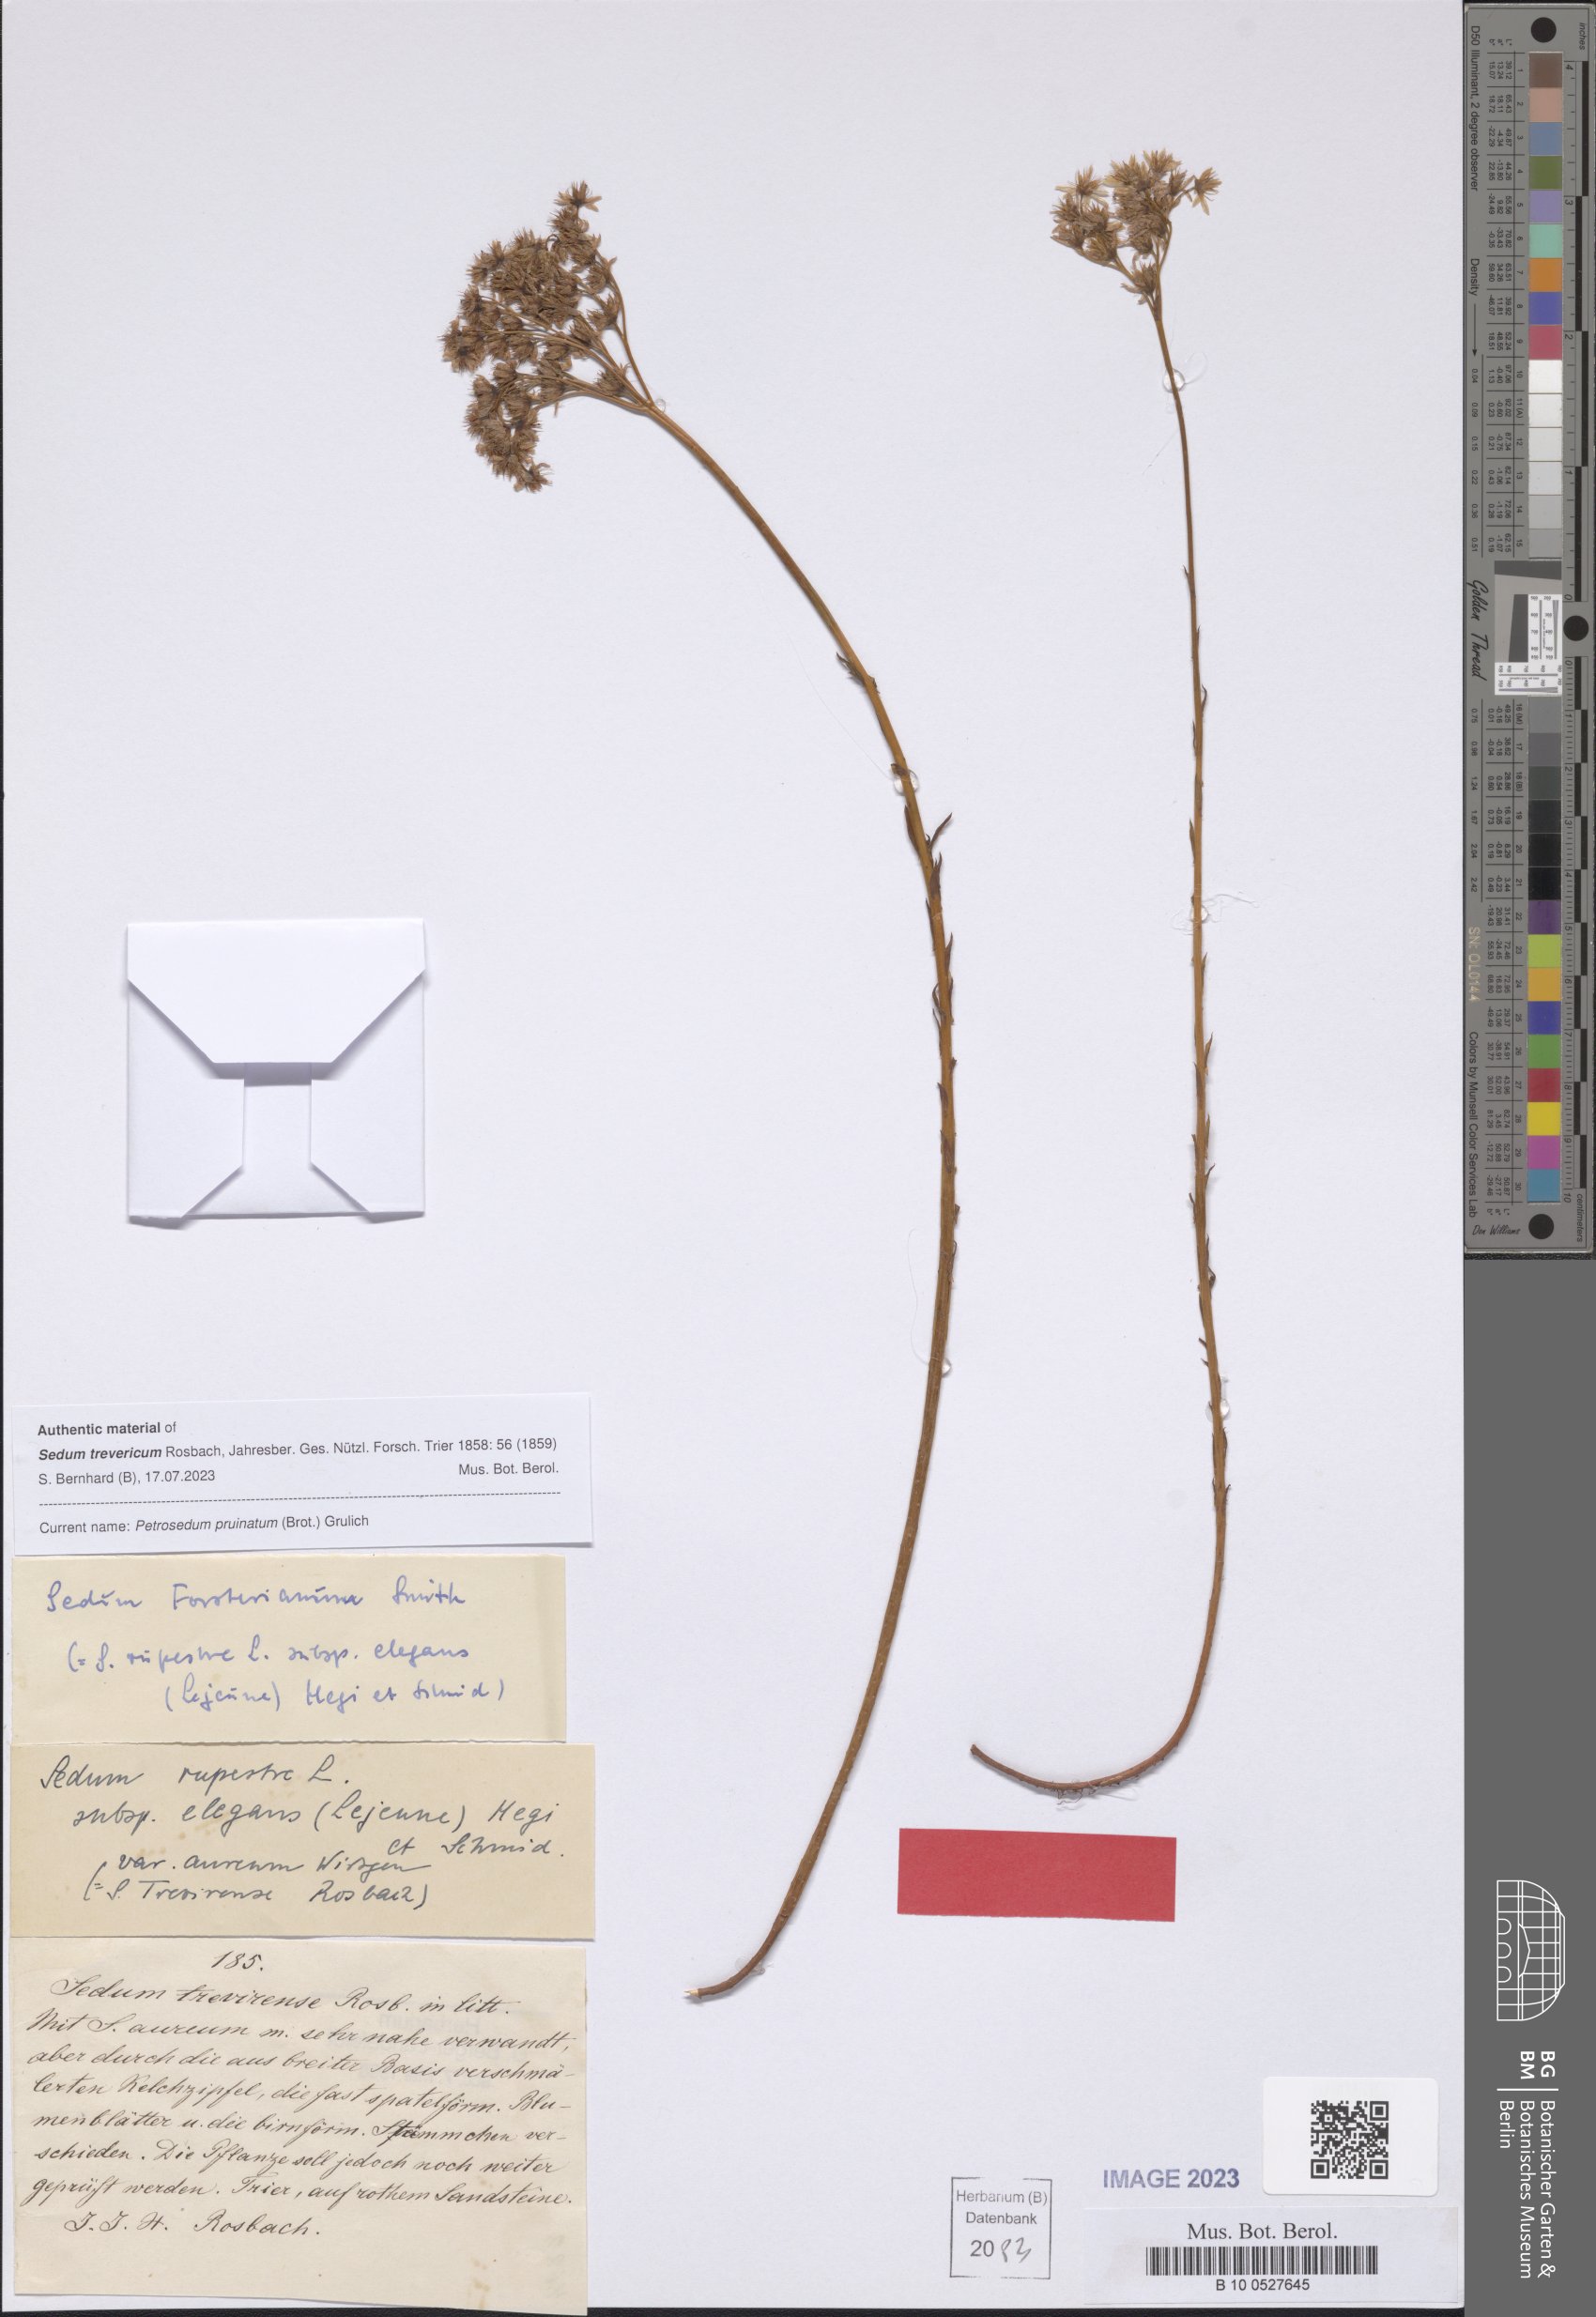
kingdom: Plantae
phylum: Tracheophyta
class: Magnoliopsida
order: Saxifragales
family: Crassulaceae
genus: Petrosedum
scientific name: Petrosedum pruinatum
